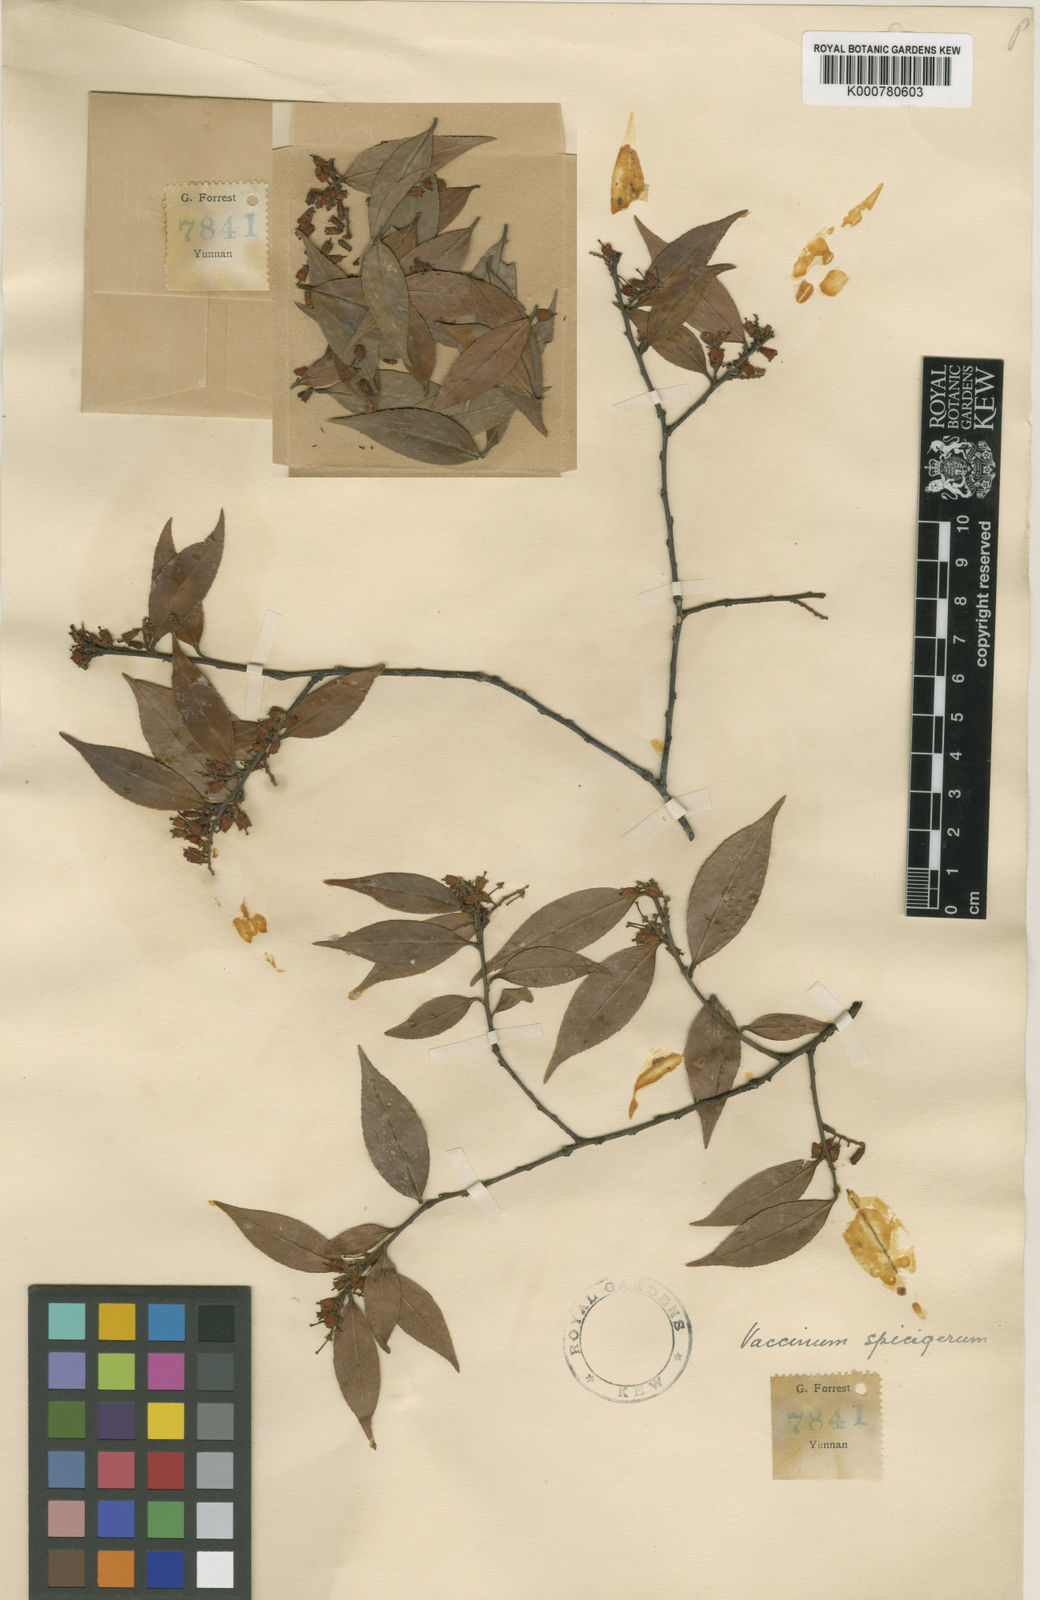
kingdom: Plantae
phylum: Tracheophyta
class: Magnoliopsida
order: Ericales
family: Ericaceae
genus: Vaccinium
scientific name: Vaccinium pubicalyx
